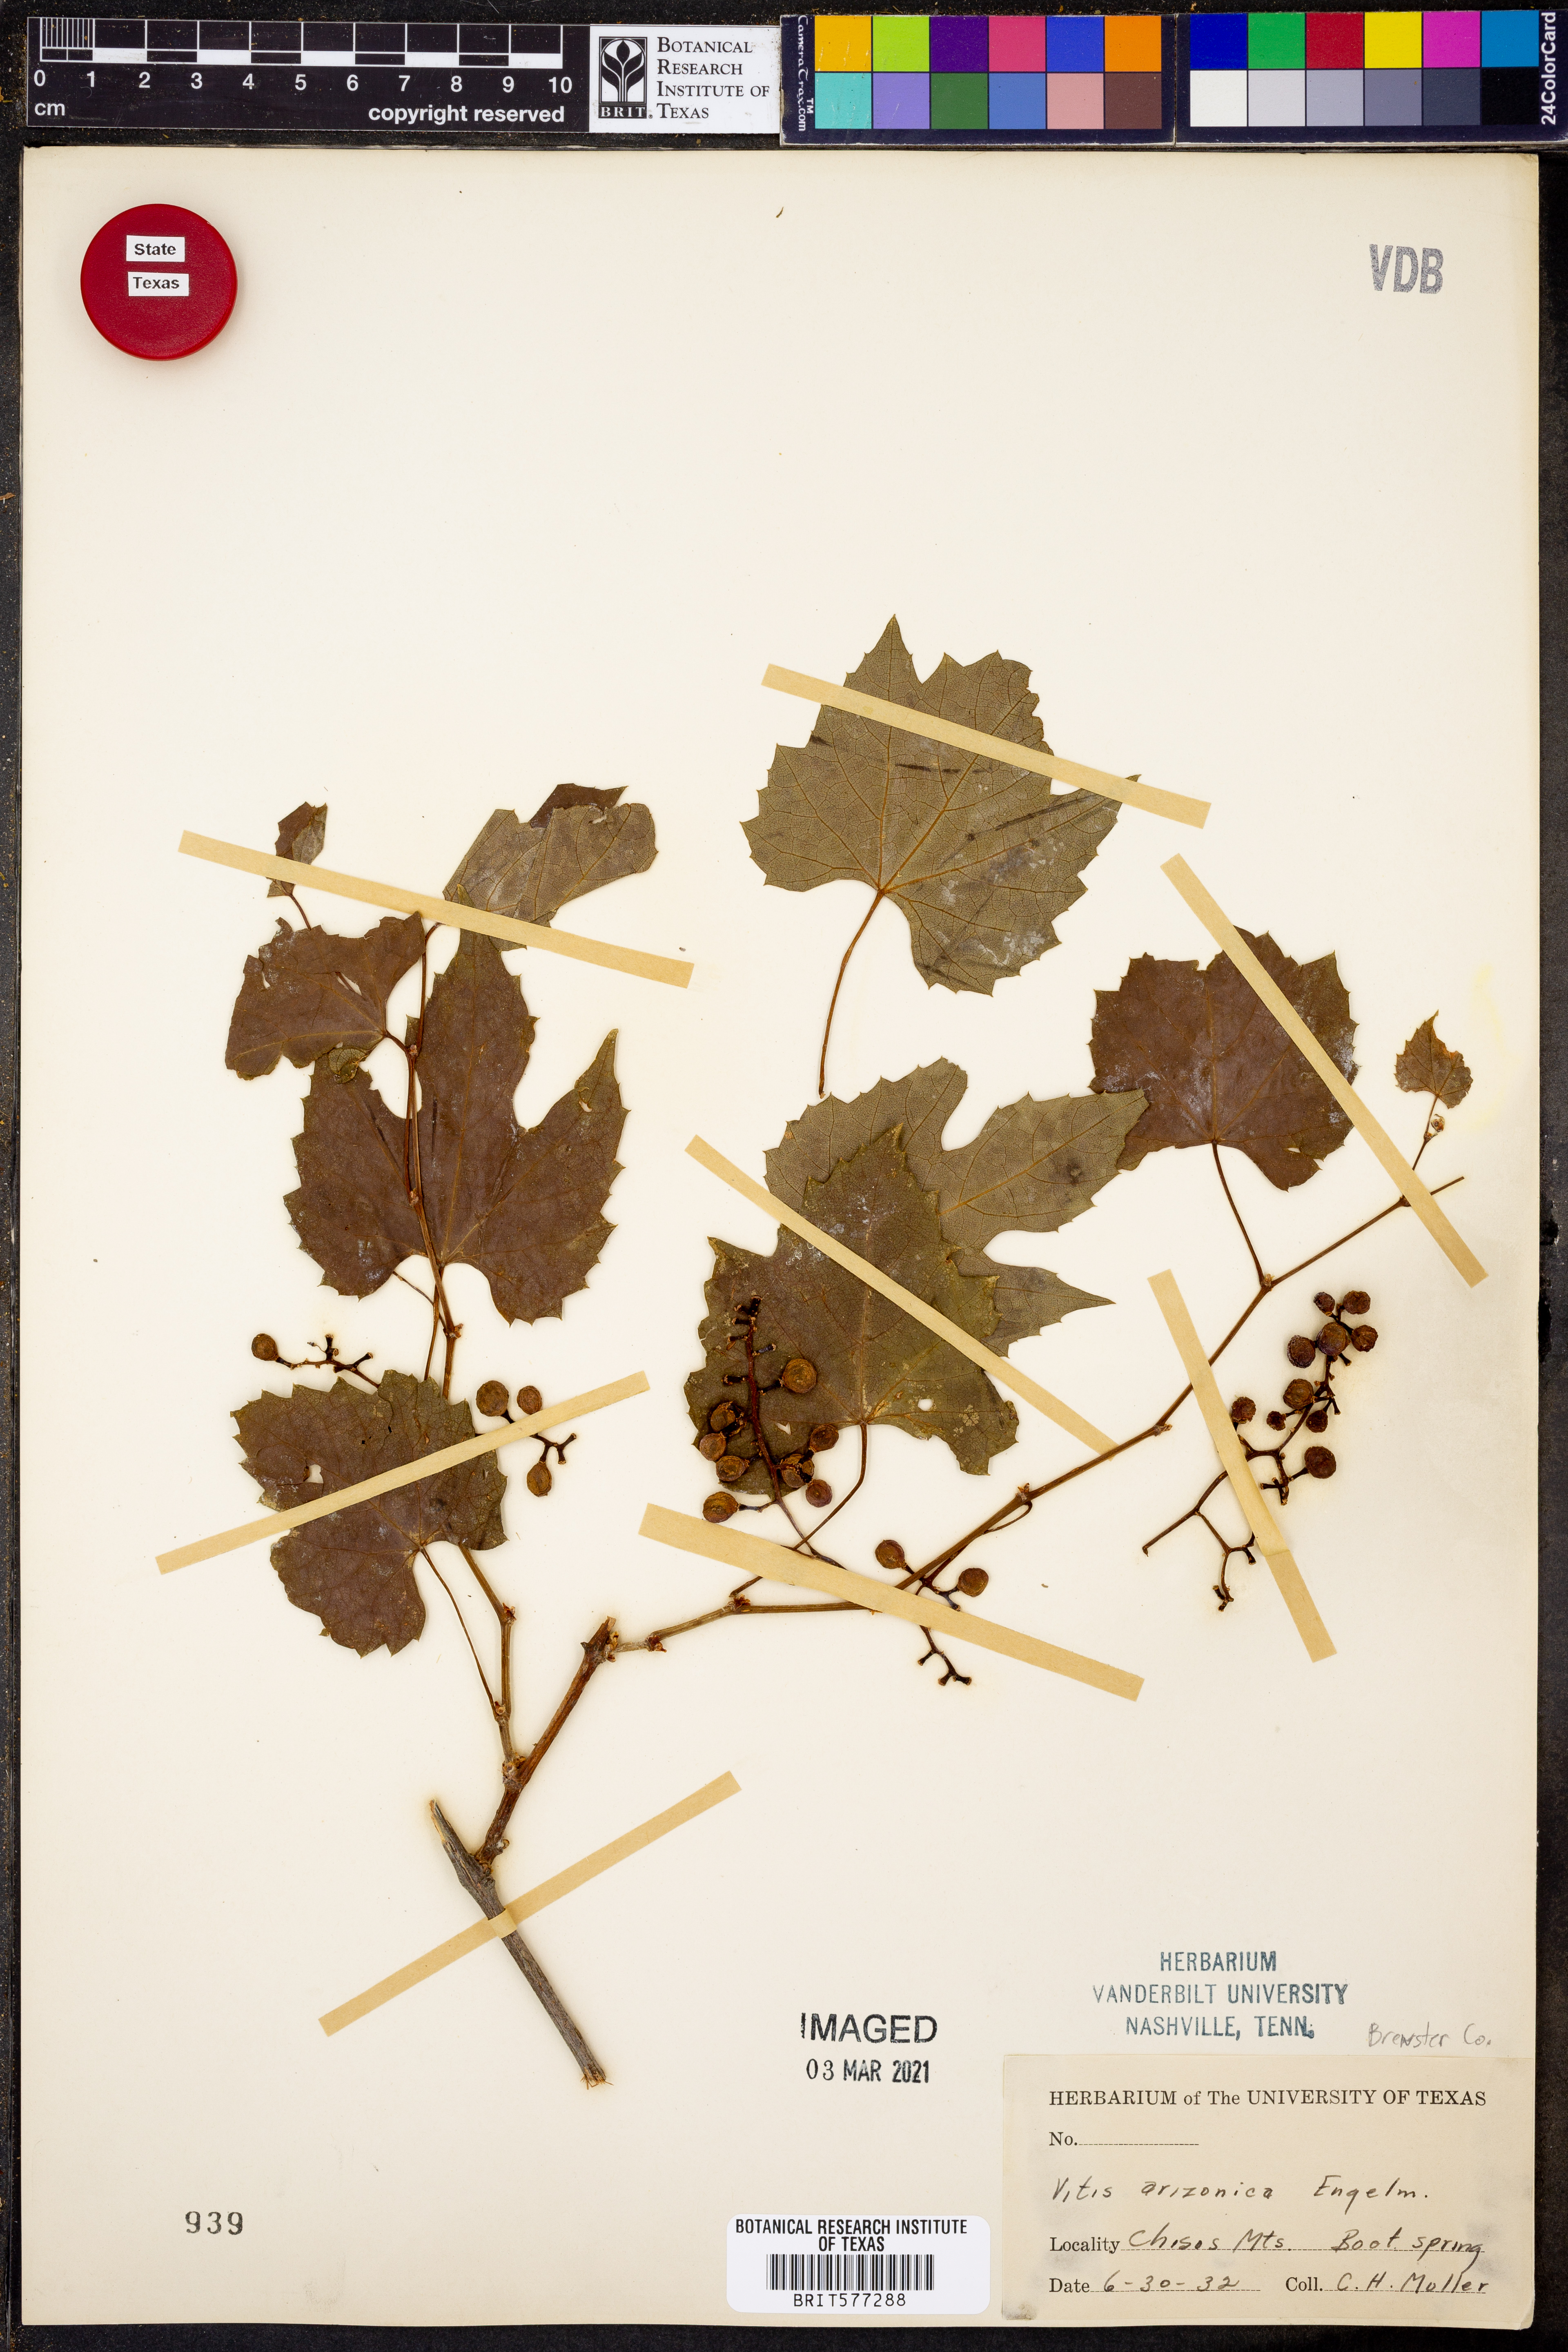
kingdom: Plantae
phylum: Tracheophyta
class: Magnoliopsida
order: Vitales
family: Vitaceae
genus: Vitis
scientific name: Vitis arizonica
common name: Canyon grape
